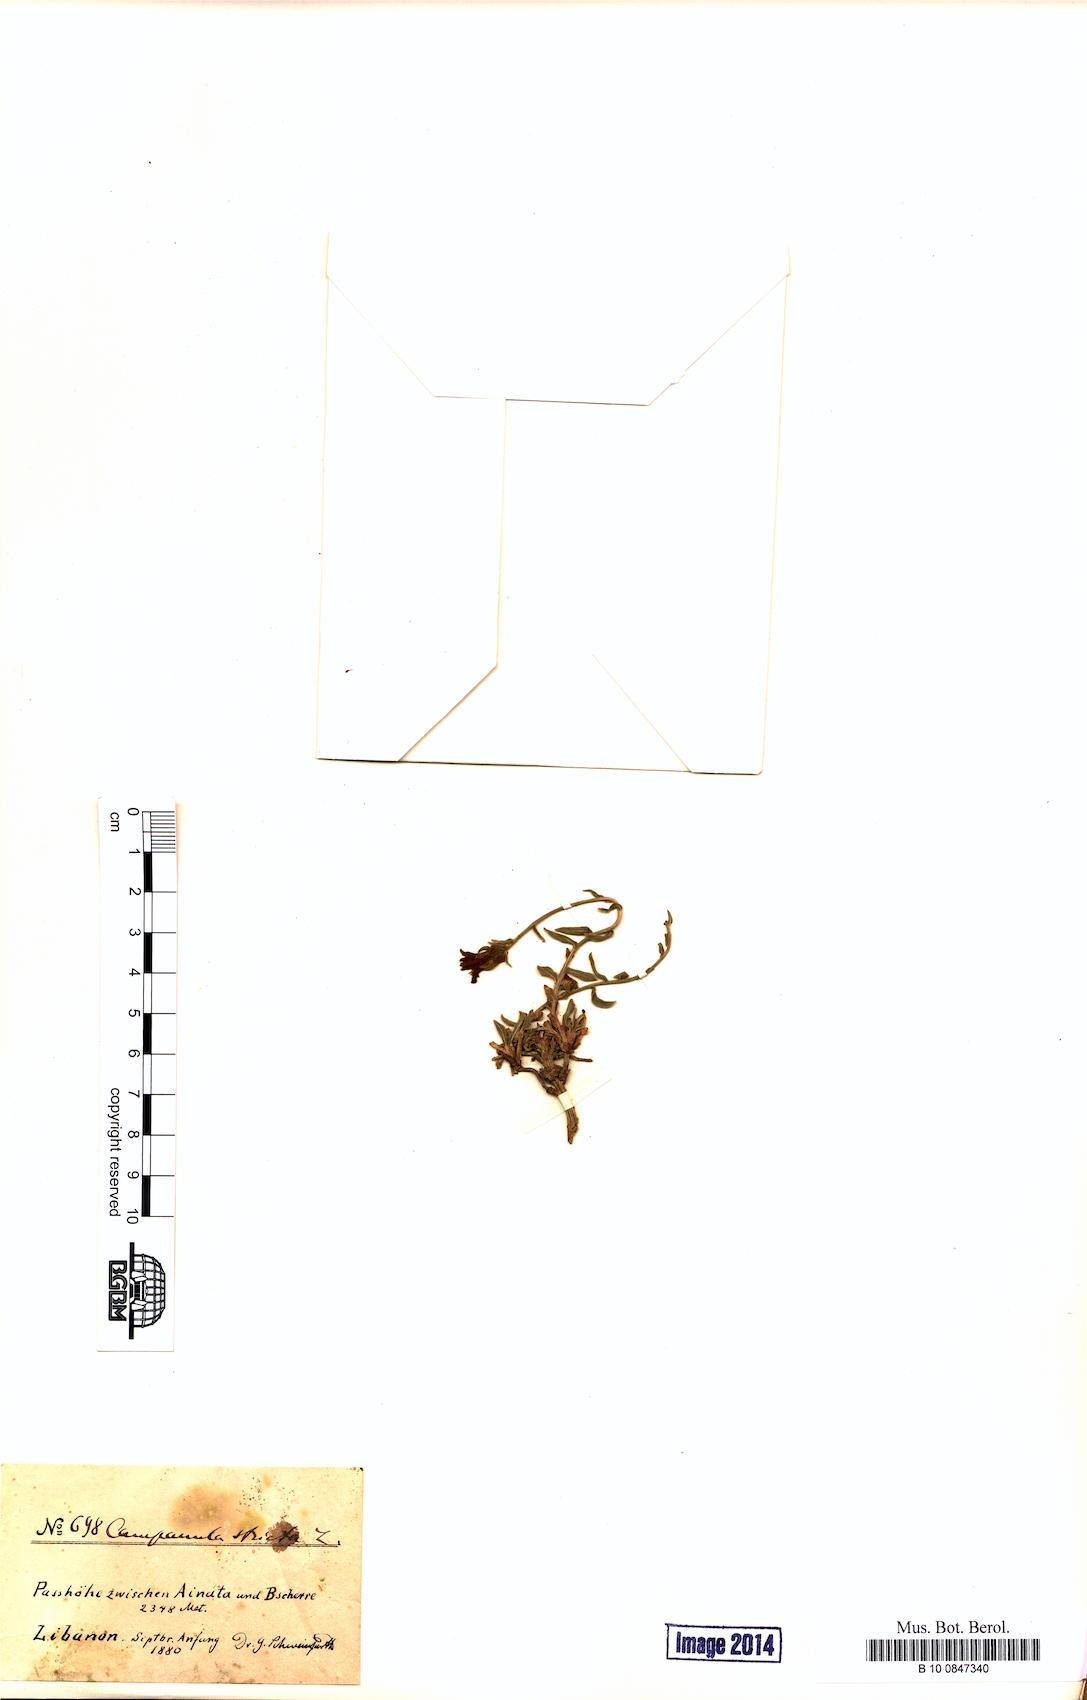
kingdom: Plantae
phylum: Tracheophyta
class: Magnoliopsida
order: Asterales
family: Campanulaceae
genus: Campanula
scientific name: Campanula stricta
